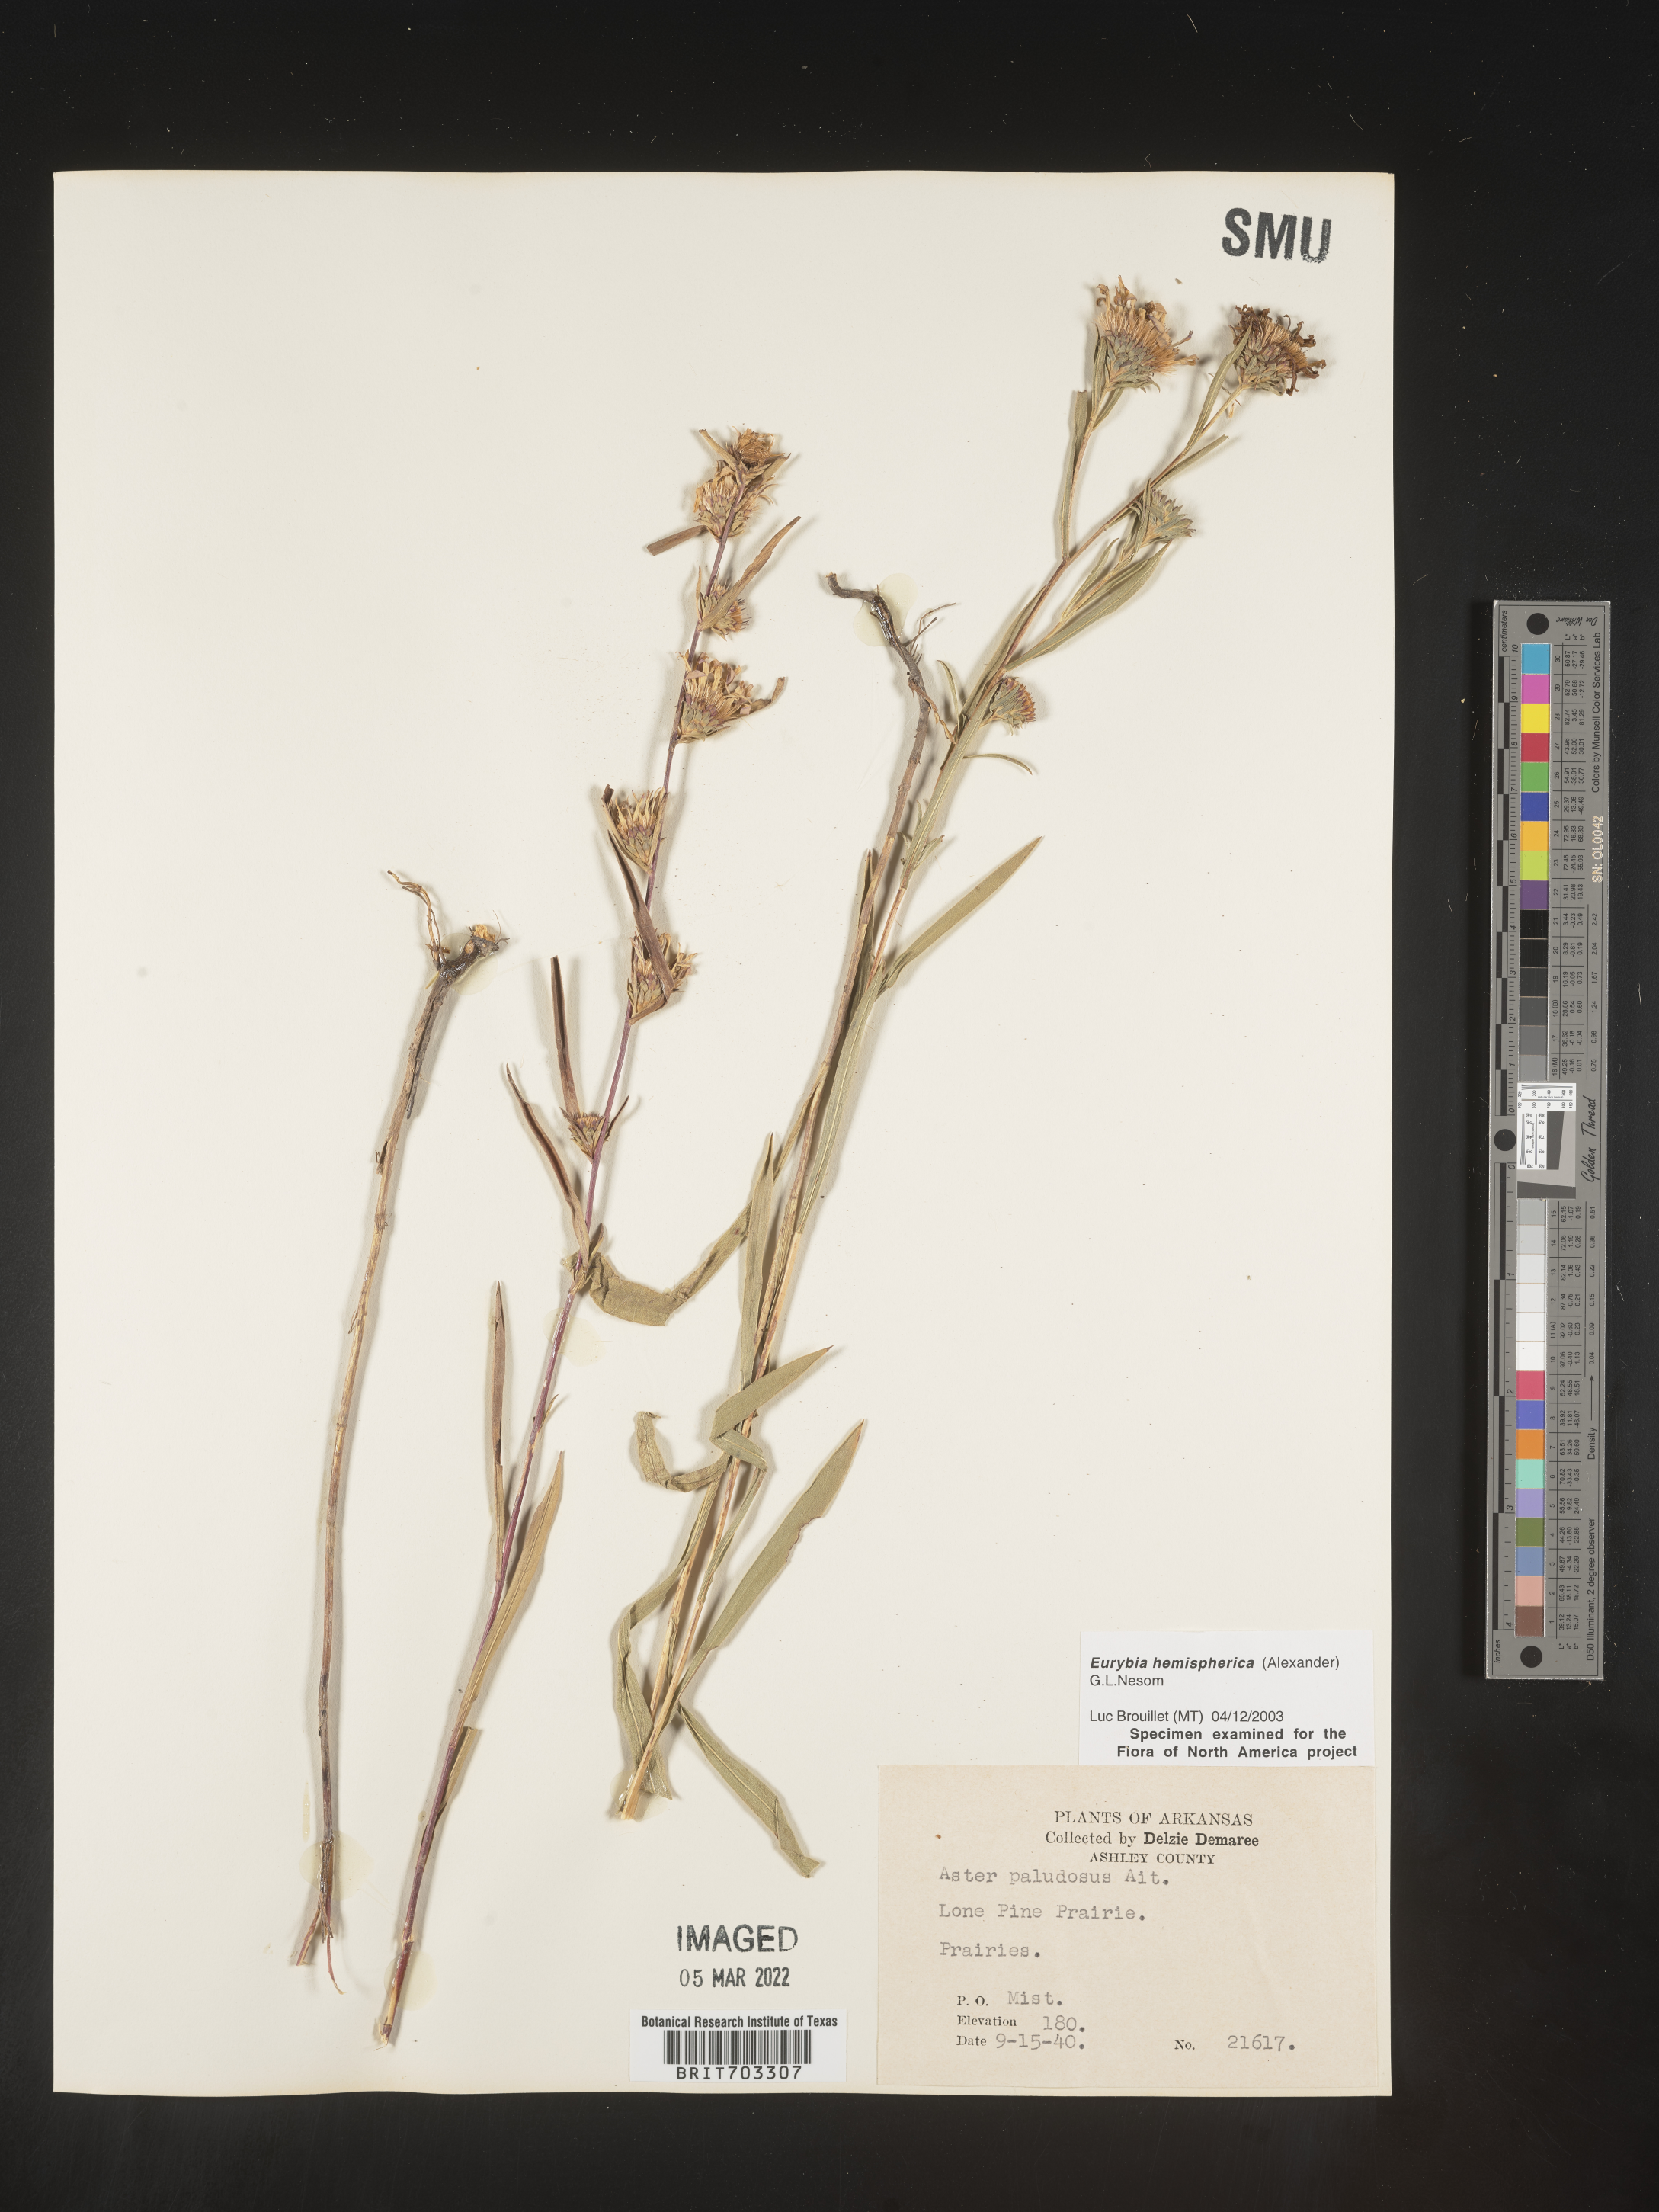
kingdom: Plantae
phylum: Tracheophyta
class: Magnoliopsida
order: Asterales
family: Asteraceae
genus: Eurybia
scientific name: Eurybia hemispherica
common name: Showy aster
